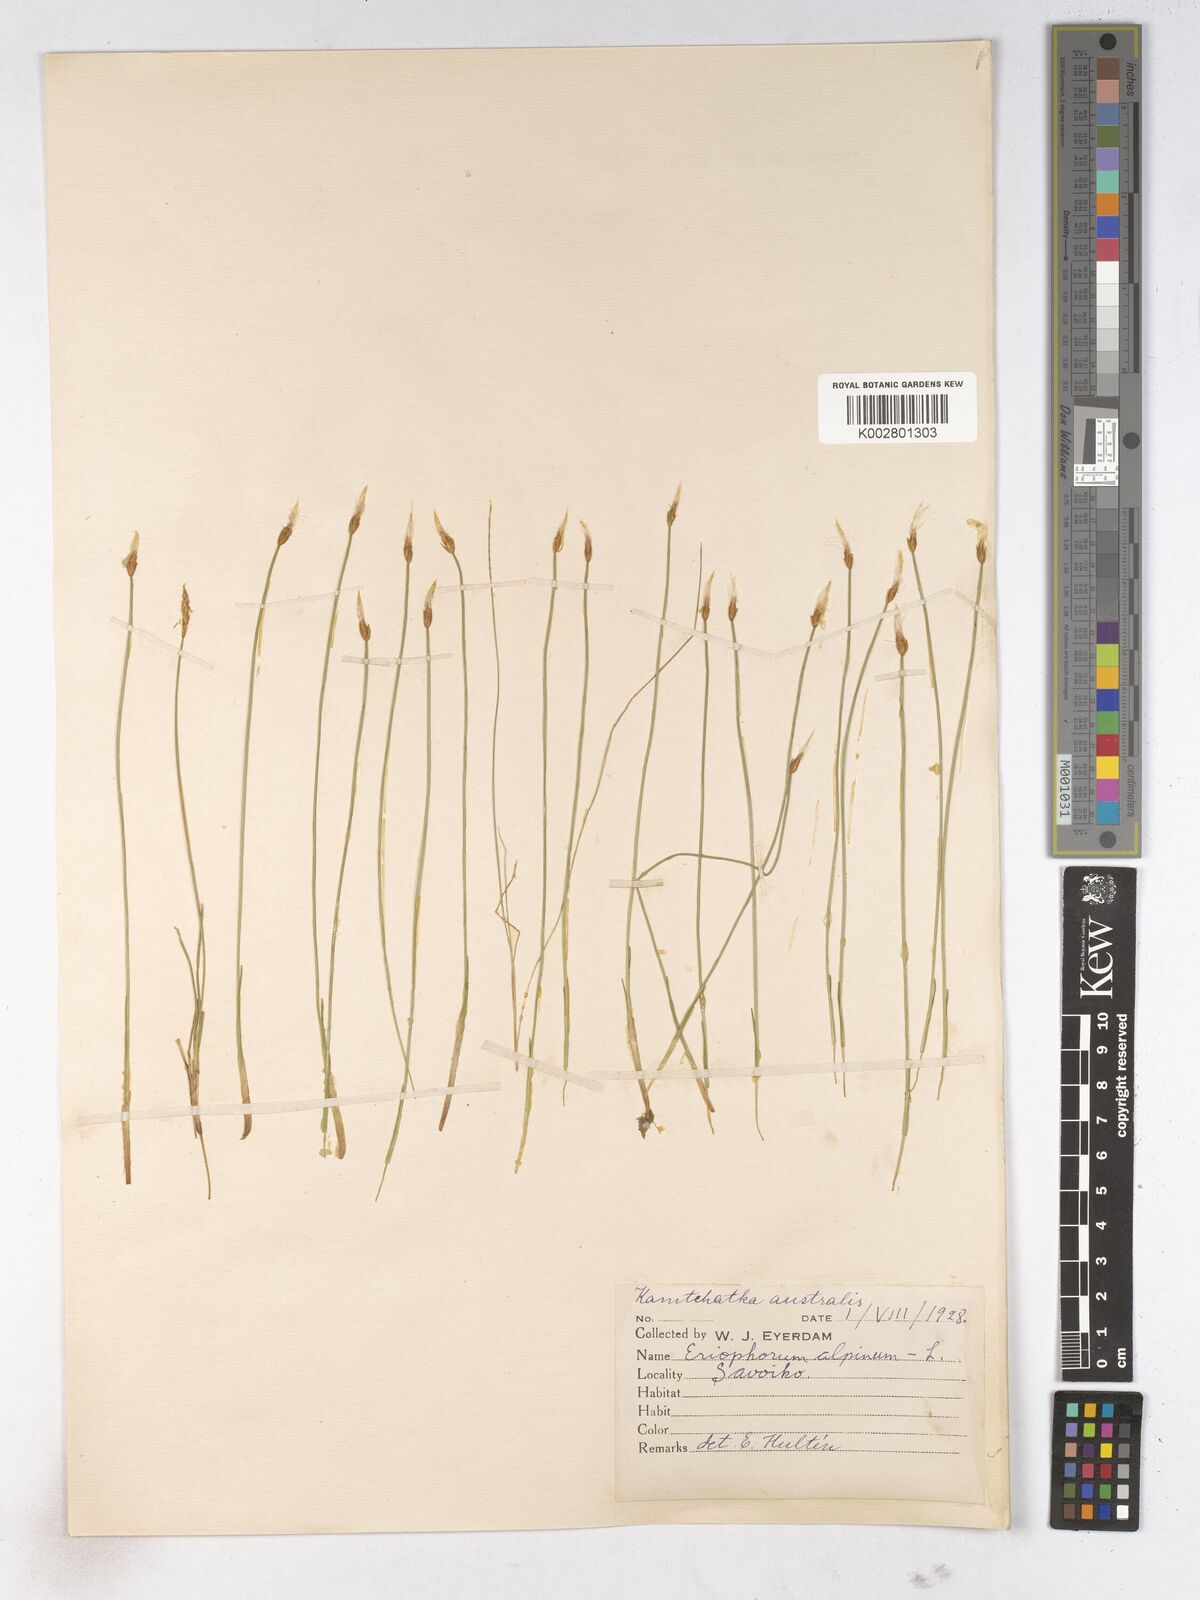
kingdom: Plantae
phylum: Tracheophyta
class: Liliopsida
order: Poales
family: Cyperaceae
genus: Trichophorum
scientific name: Trichophorum alpinum
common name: Alpine bulrush
